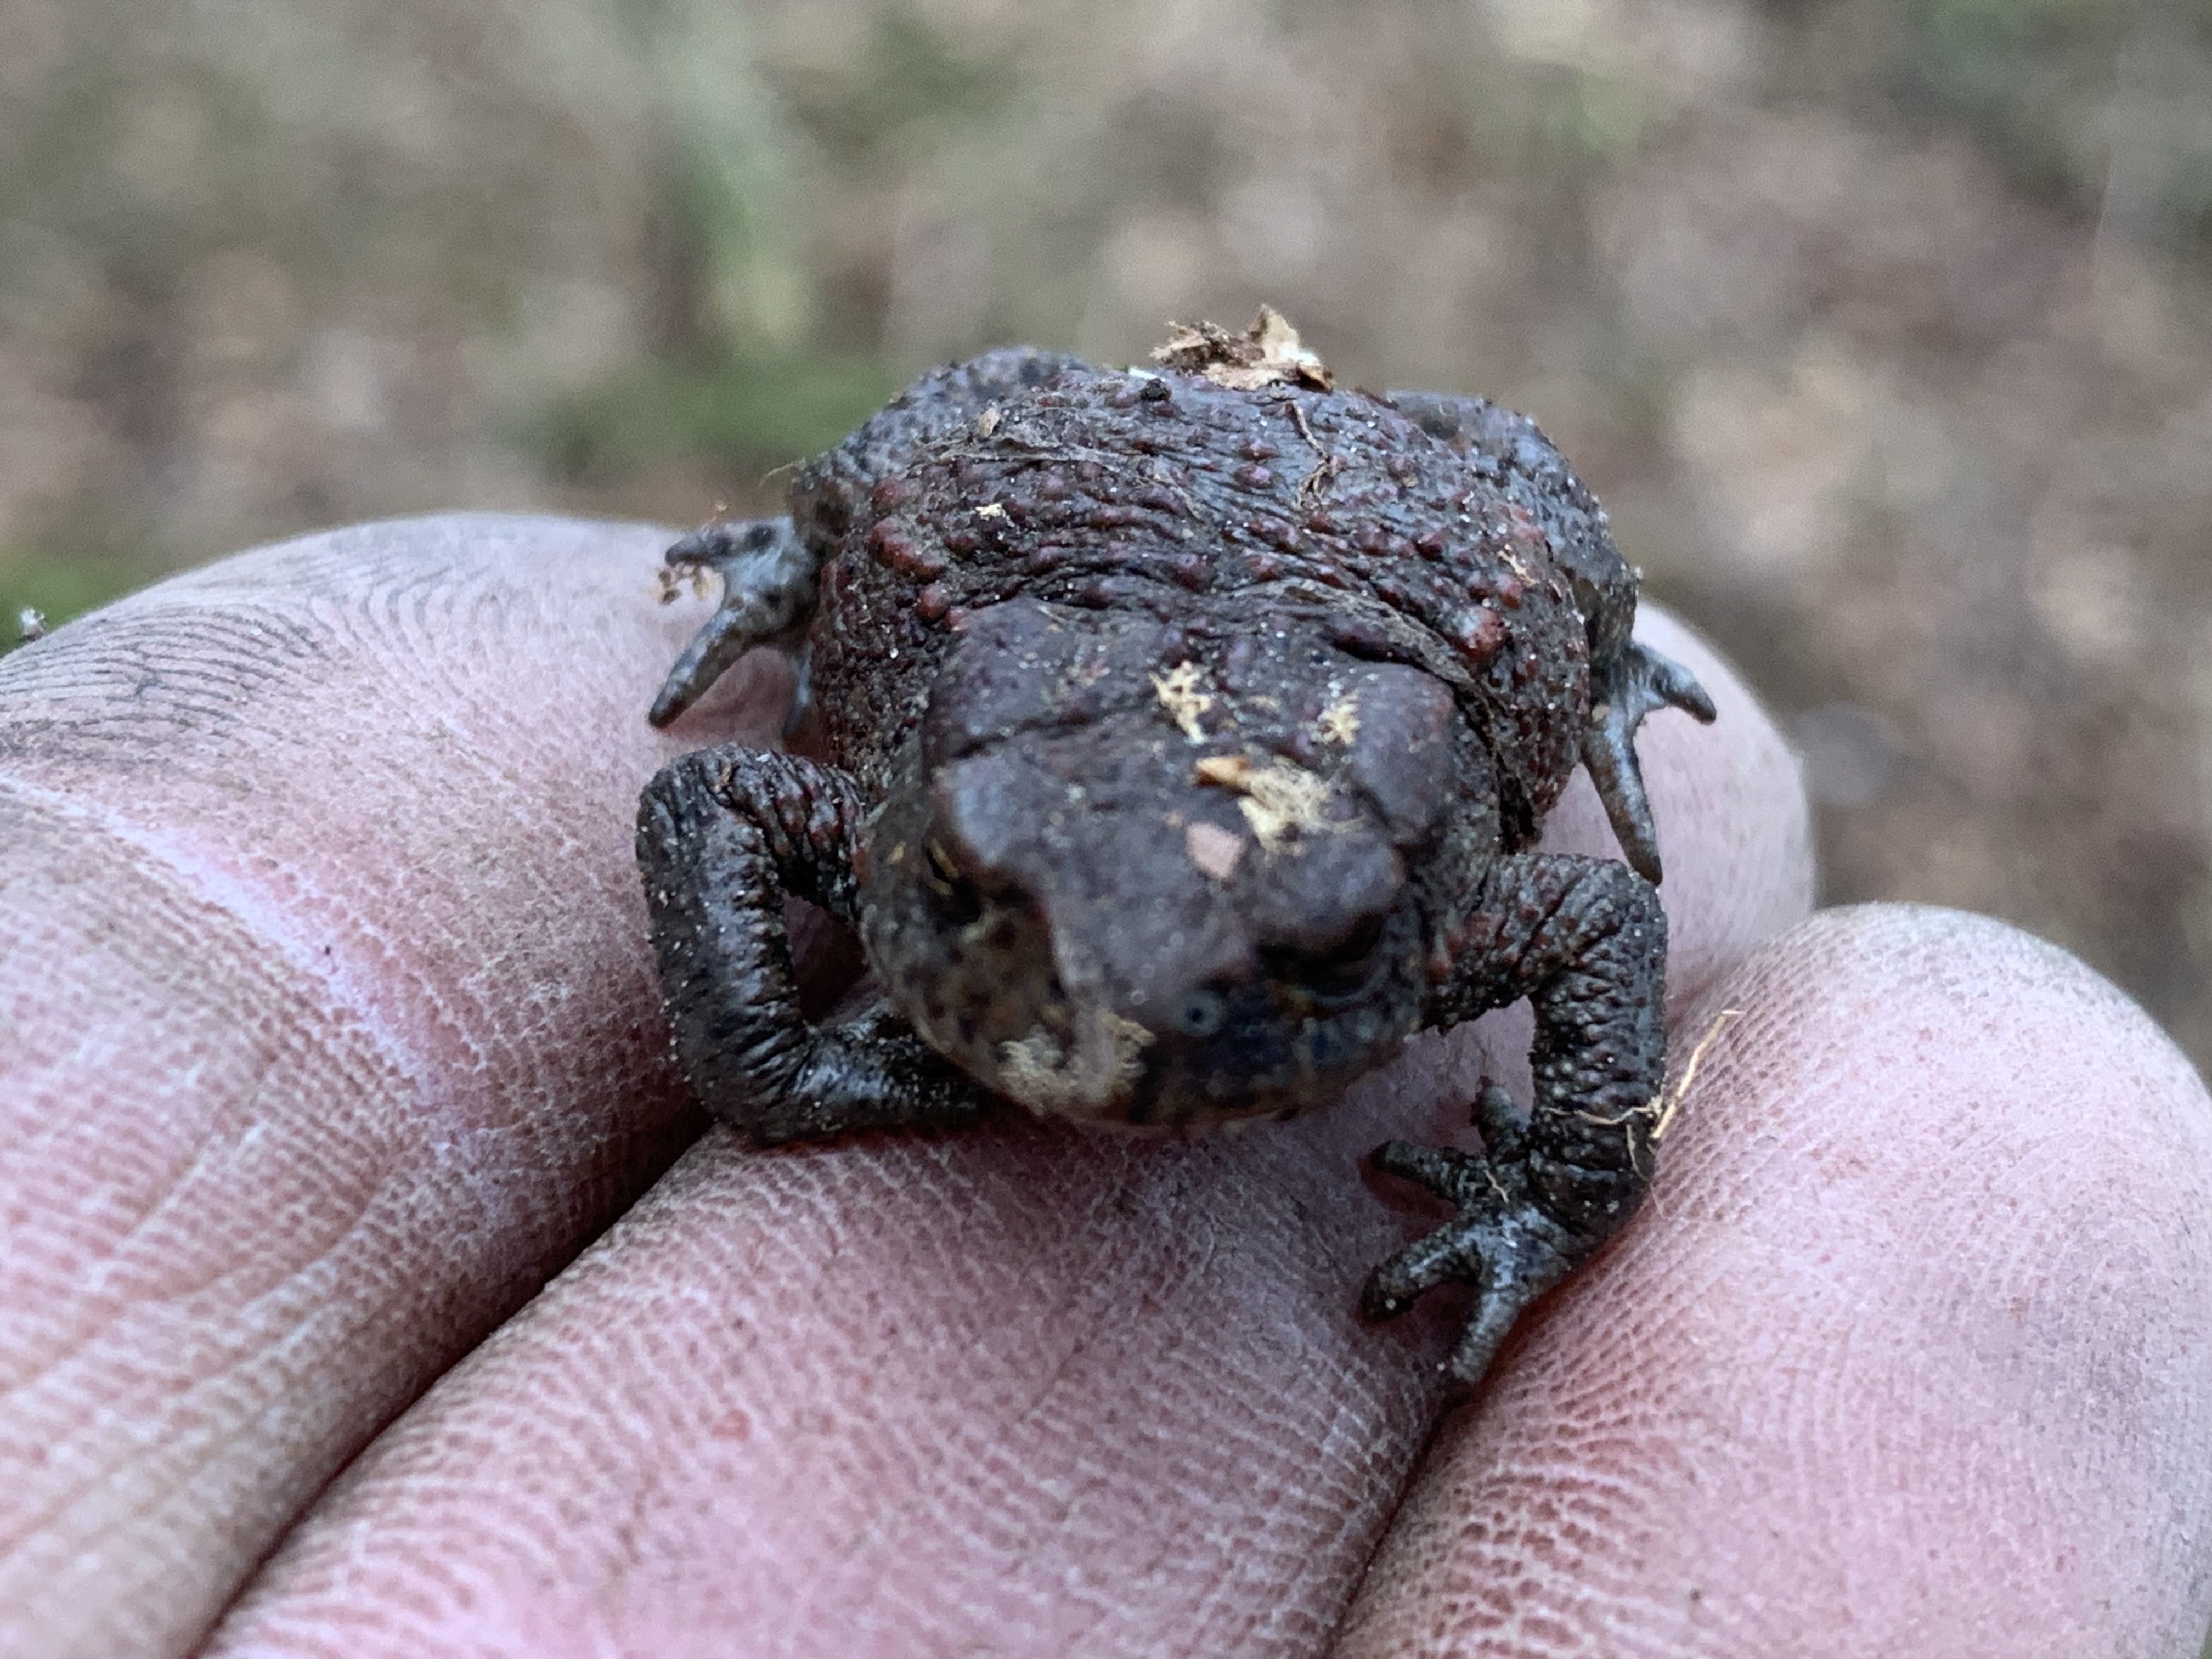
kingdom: Animalia
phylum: Chordata
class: Amphibia
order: Anura
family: Bufonidae
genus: Bufo
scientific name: Bufo bufo
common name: Skrubtudse
